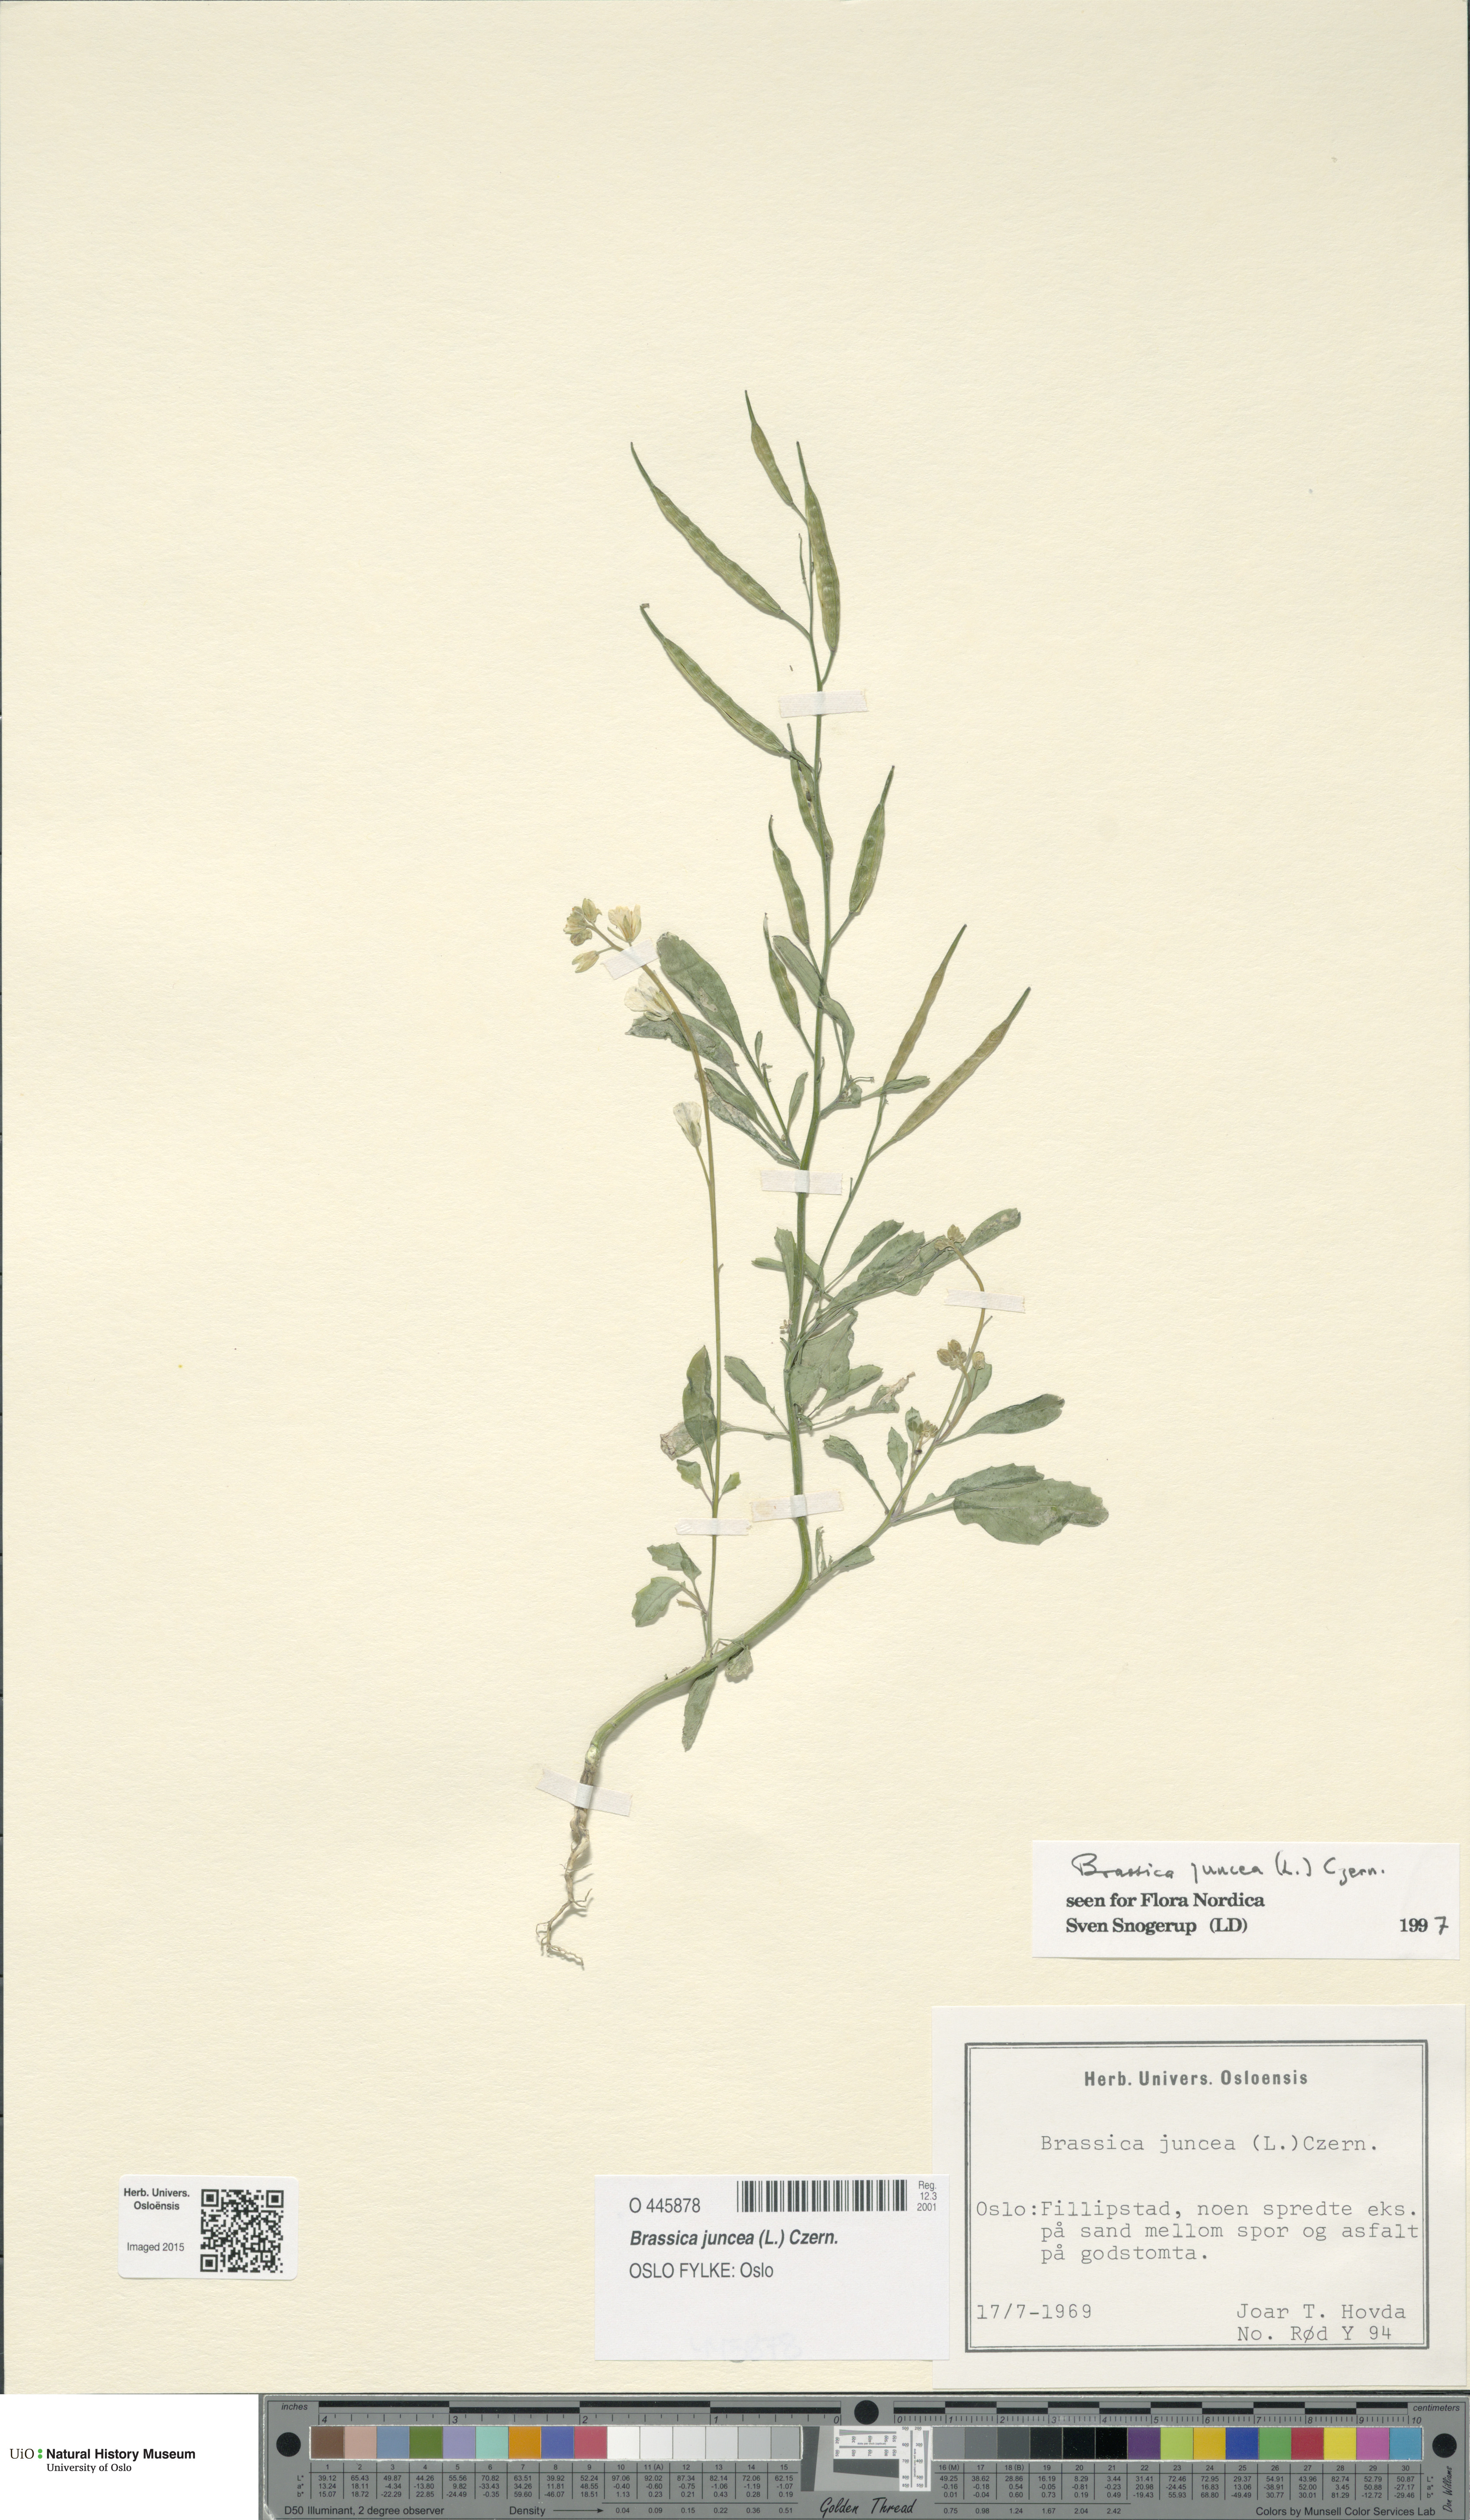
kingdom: Plantae
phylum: Tracheophyta
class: Magnoliopsida
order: Brassicales
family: Brassicaceae
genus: Brassica
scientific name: Brassica juncea
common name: Brown mustard
